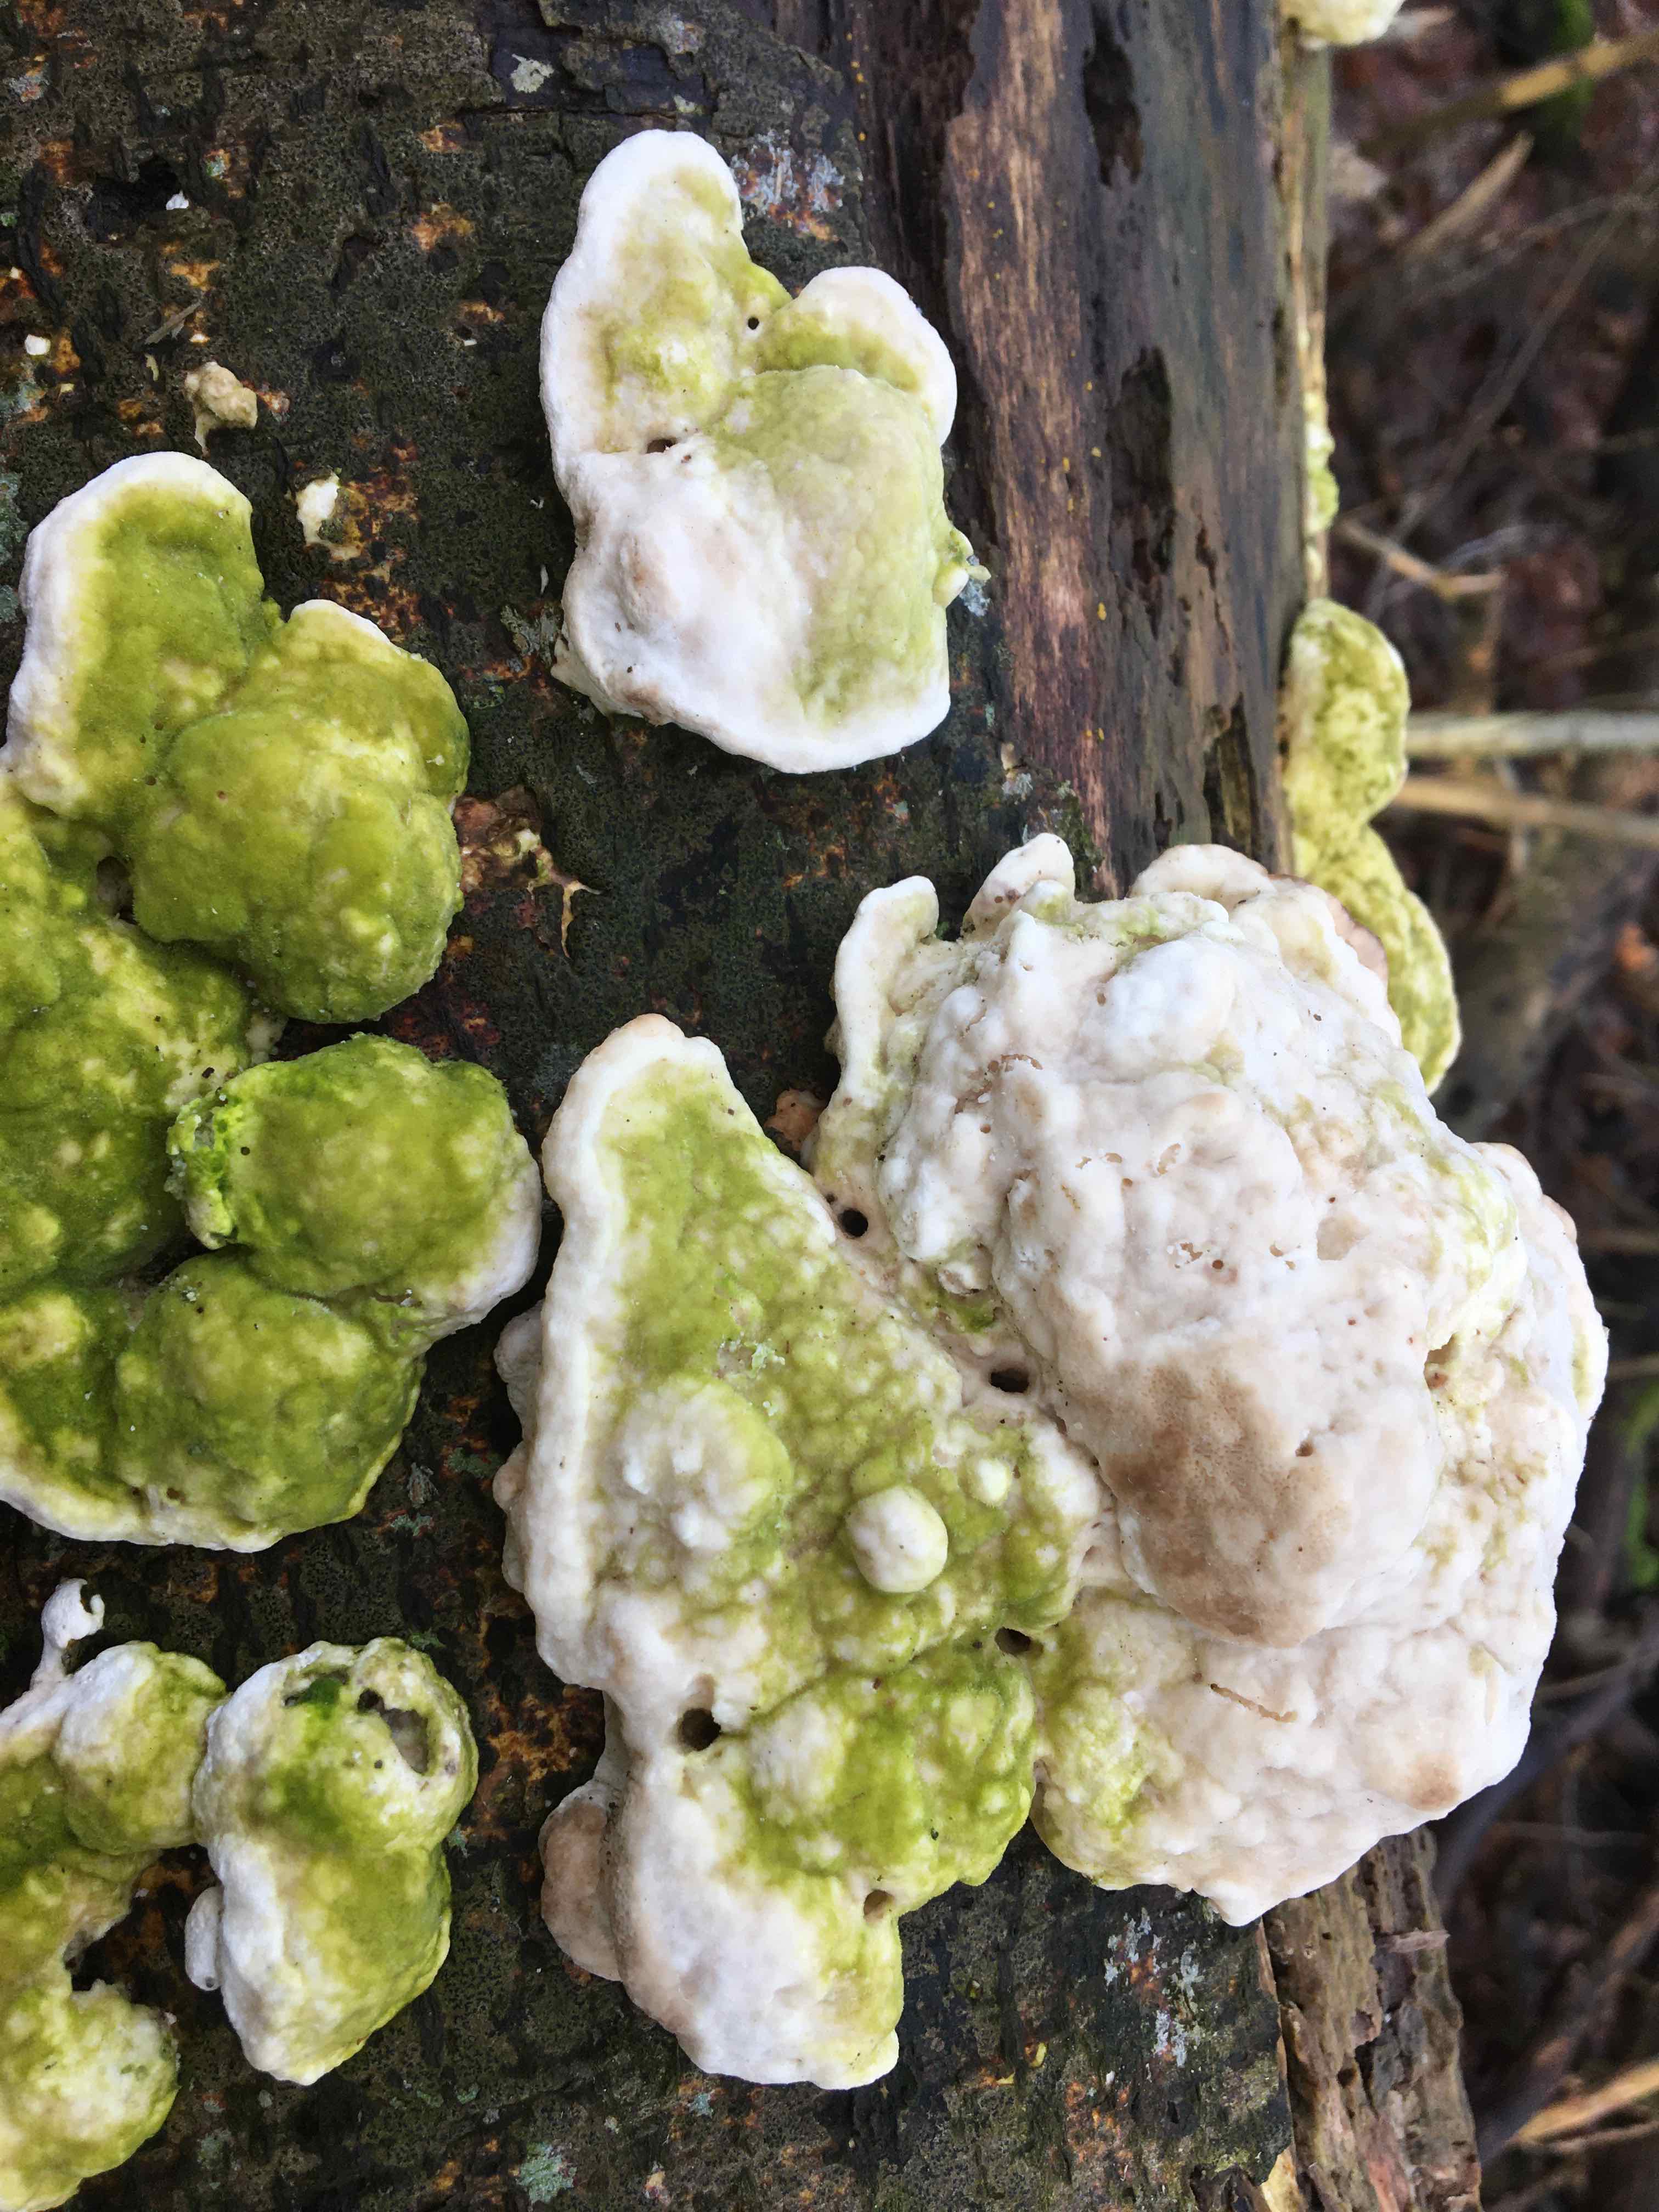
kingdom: Fungi
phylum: Basidiomycota
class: Agaricomycetes
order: Polyporales
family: Polyporaceae
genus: Trametes
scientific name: Trametes gibbosa
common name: puklet læderporesvamp
